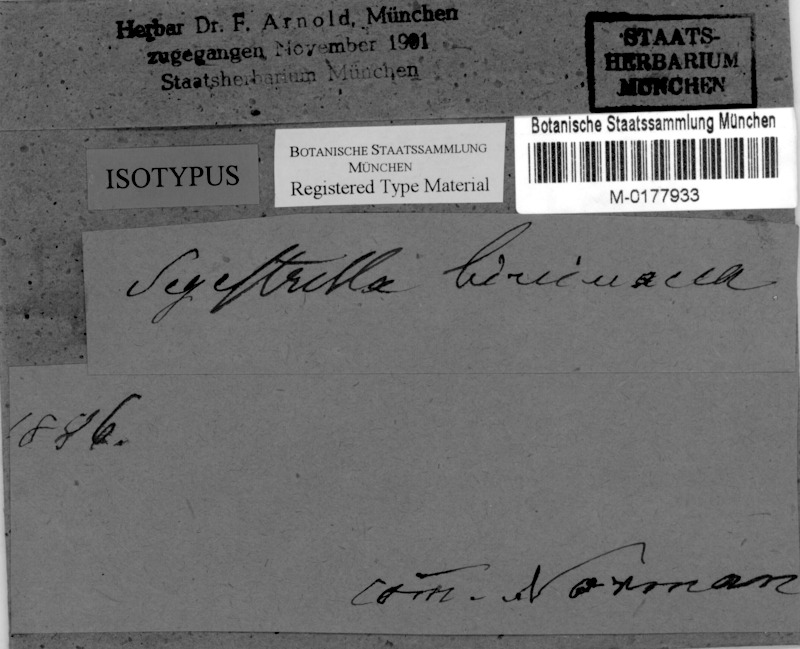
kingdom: Fungi
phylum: Ascomycota
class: Dothideomycetes
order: Pleosporales
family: Massariaceae
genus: Massaria
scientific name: Massaria corticola
